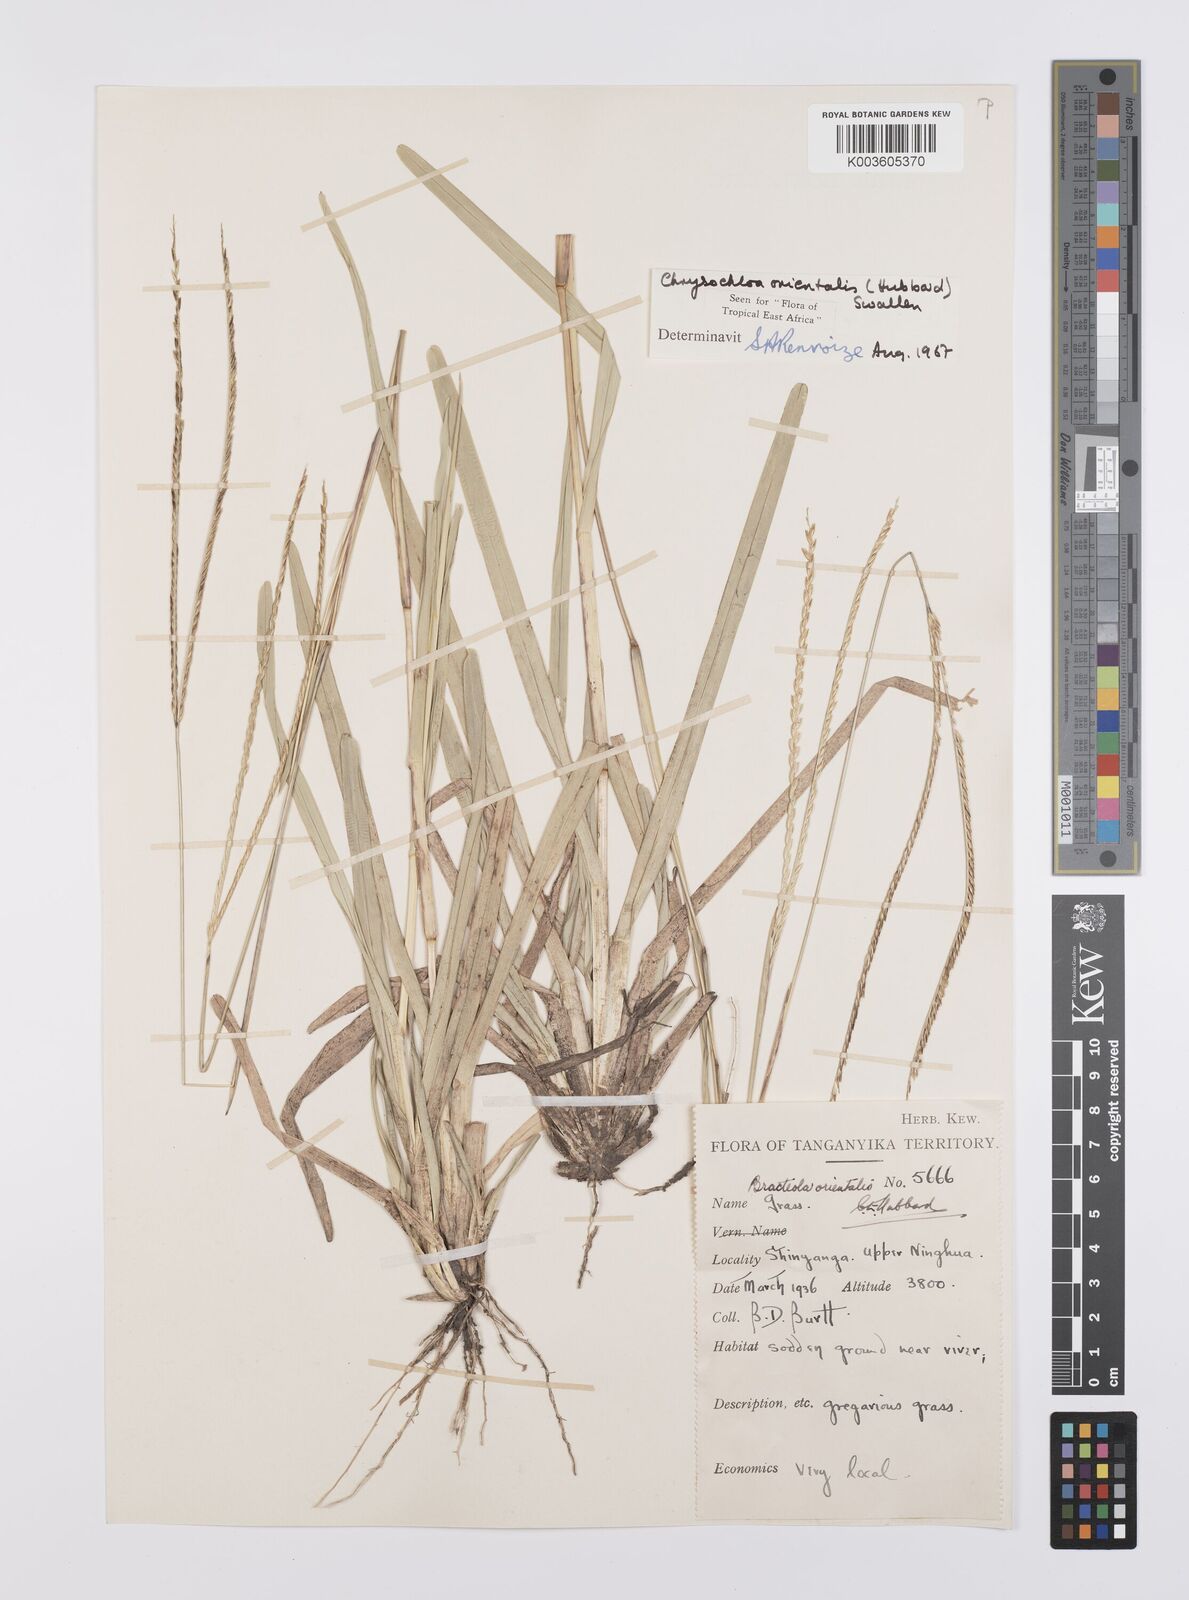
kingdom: Plantae
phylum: Tracheophyta
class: Liliopsida
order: Poales
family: Poaceae
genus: Chrysochloa
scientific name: Chrysochloa orientalis
